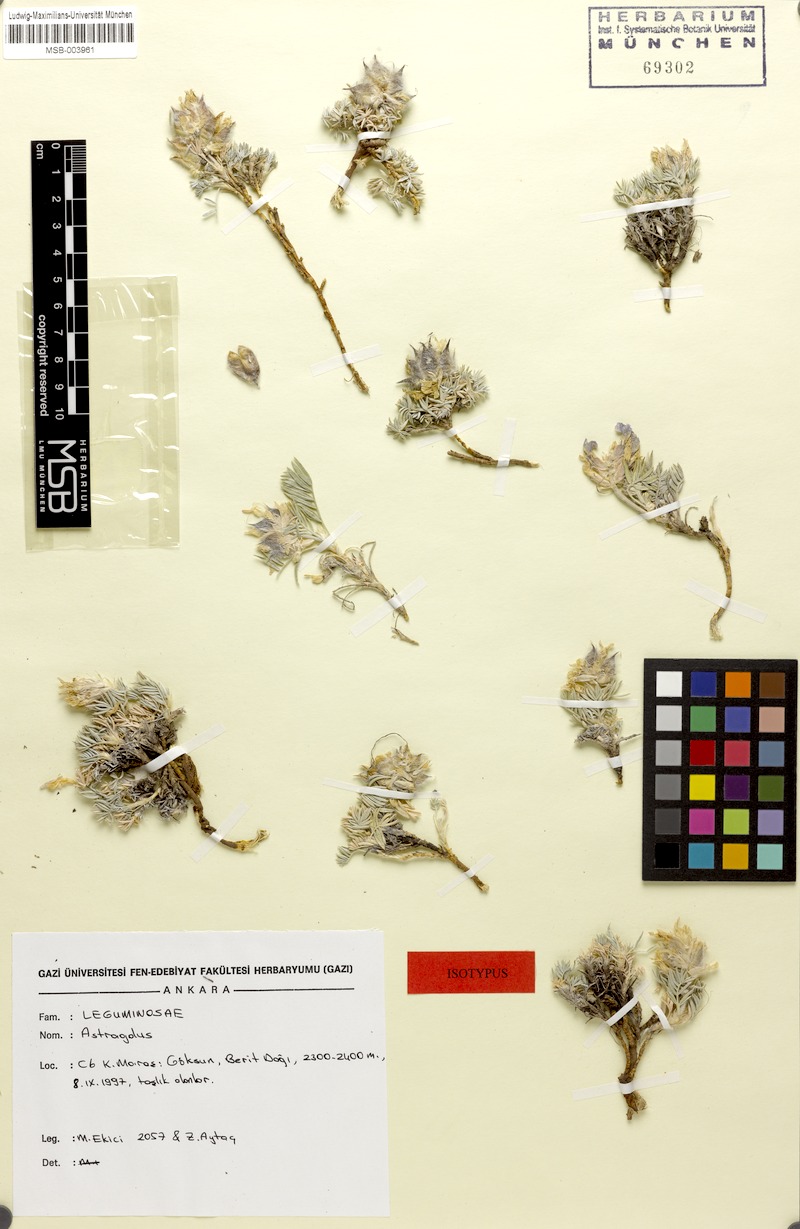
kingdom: Plantae
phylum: Tracheophyta
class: Magnoliopsida
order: Fabales
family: Fabaceae
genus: Astragalus
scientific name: Astragalus dumanii
